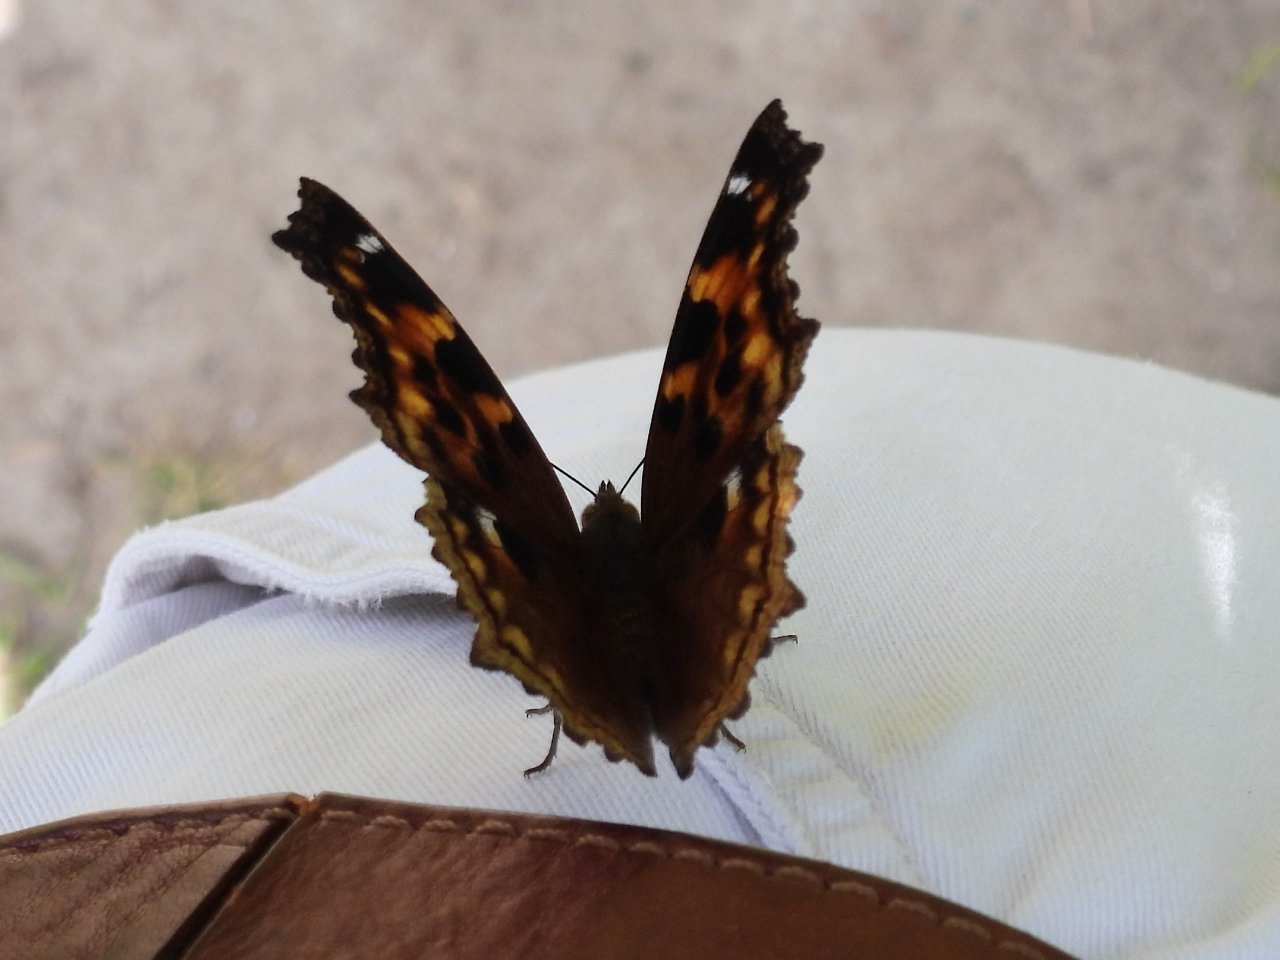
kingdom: Animalia
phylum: Arthropoda
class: Insecta
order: Lepidoptera
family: Nymphalidae
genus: Polygonia
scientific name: Polygonia vaualbum
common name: Compton Tortoiseshell
